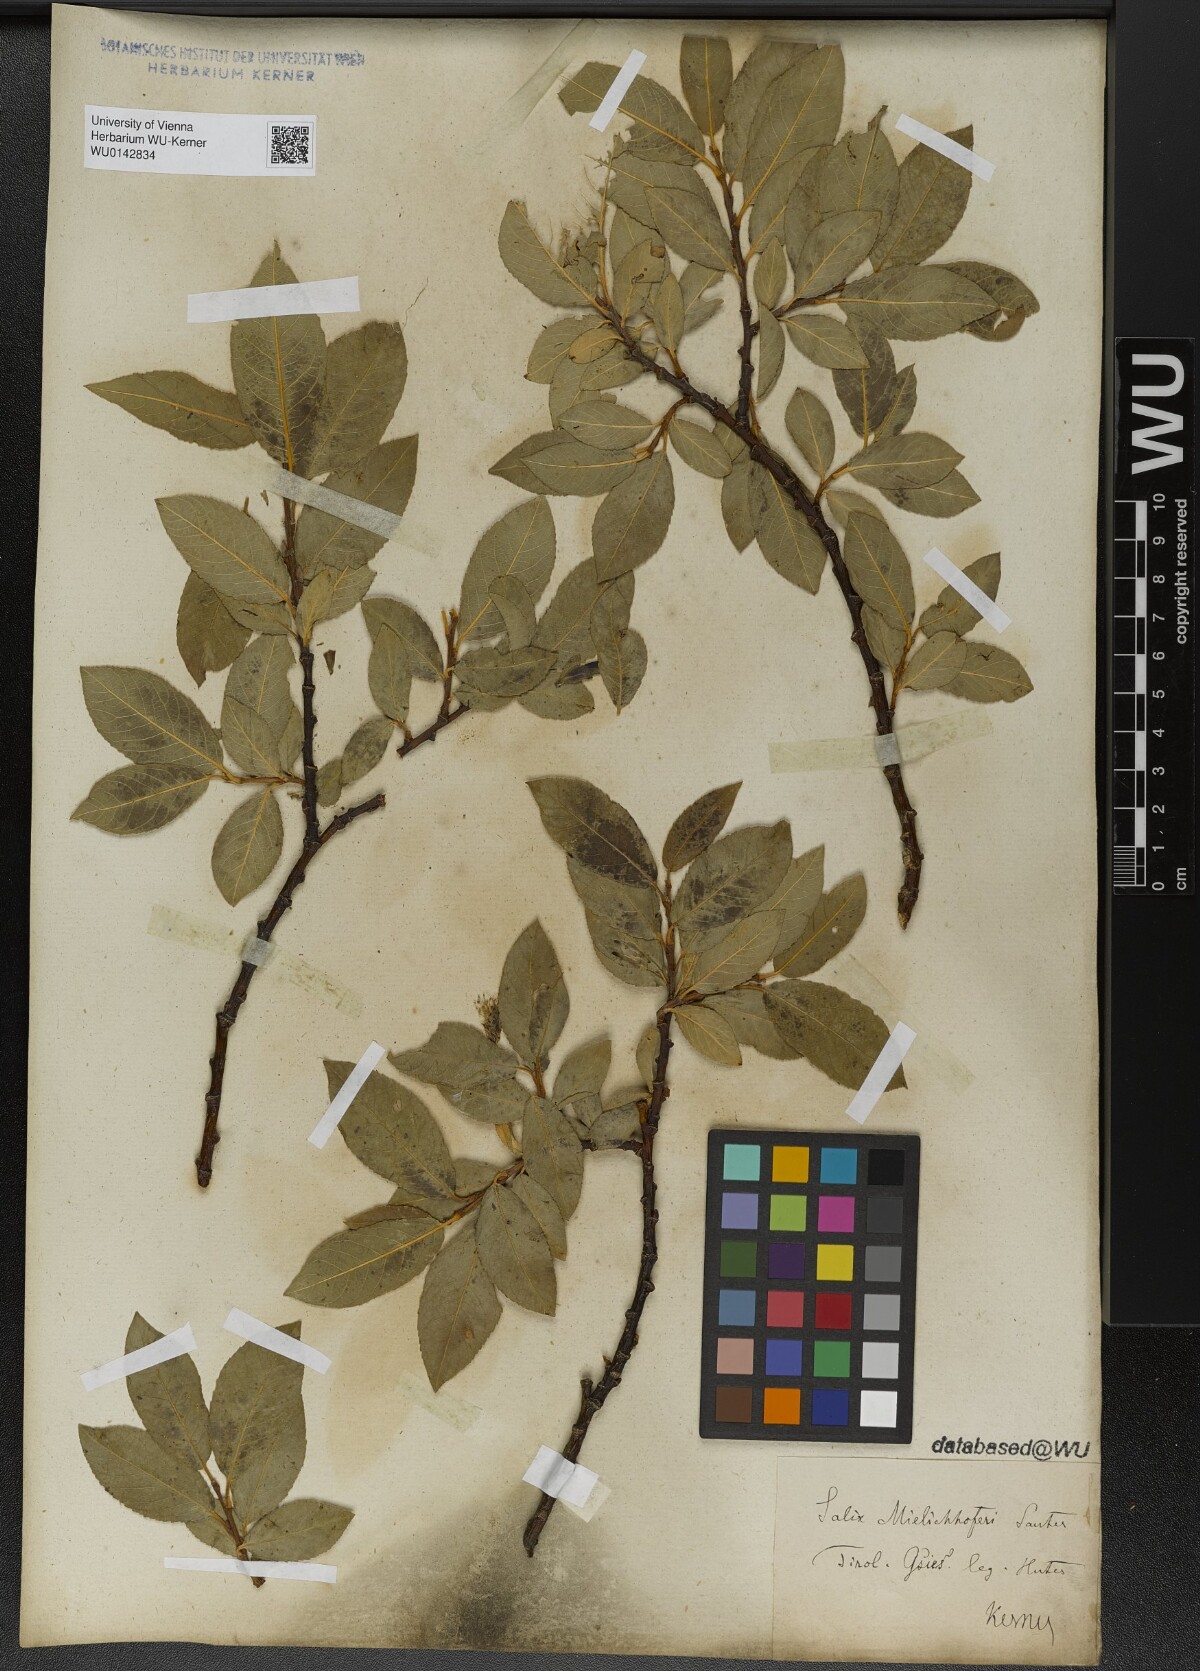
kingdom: Plantae
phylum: Tracheophyta
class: Magnoliopsida
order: Malpighiales
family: Salicaceae
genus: Salix
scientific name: Salix mielichhoferi
